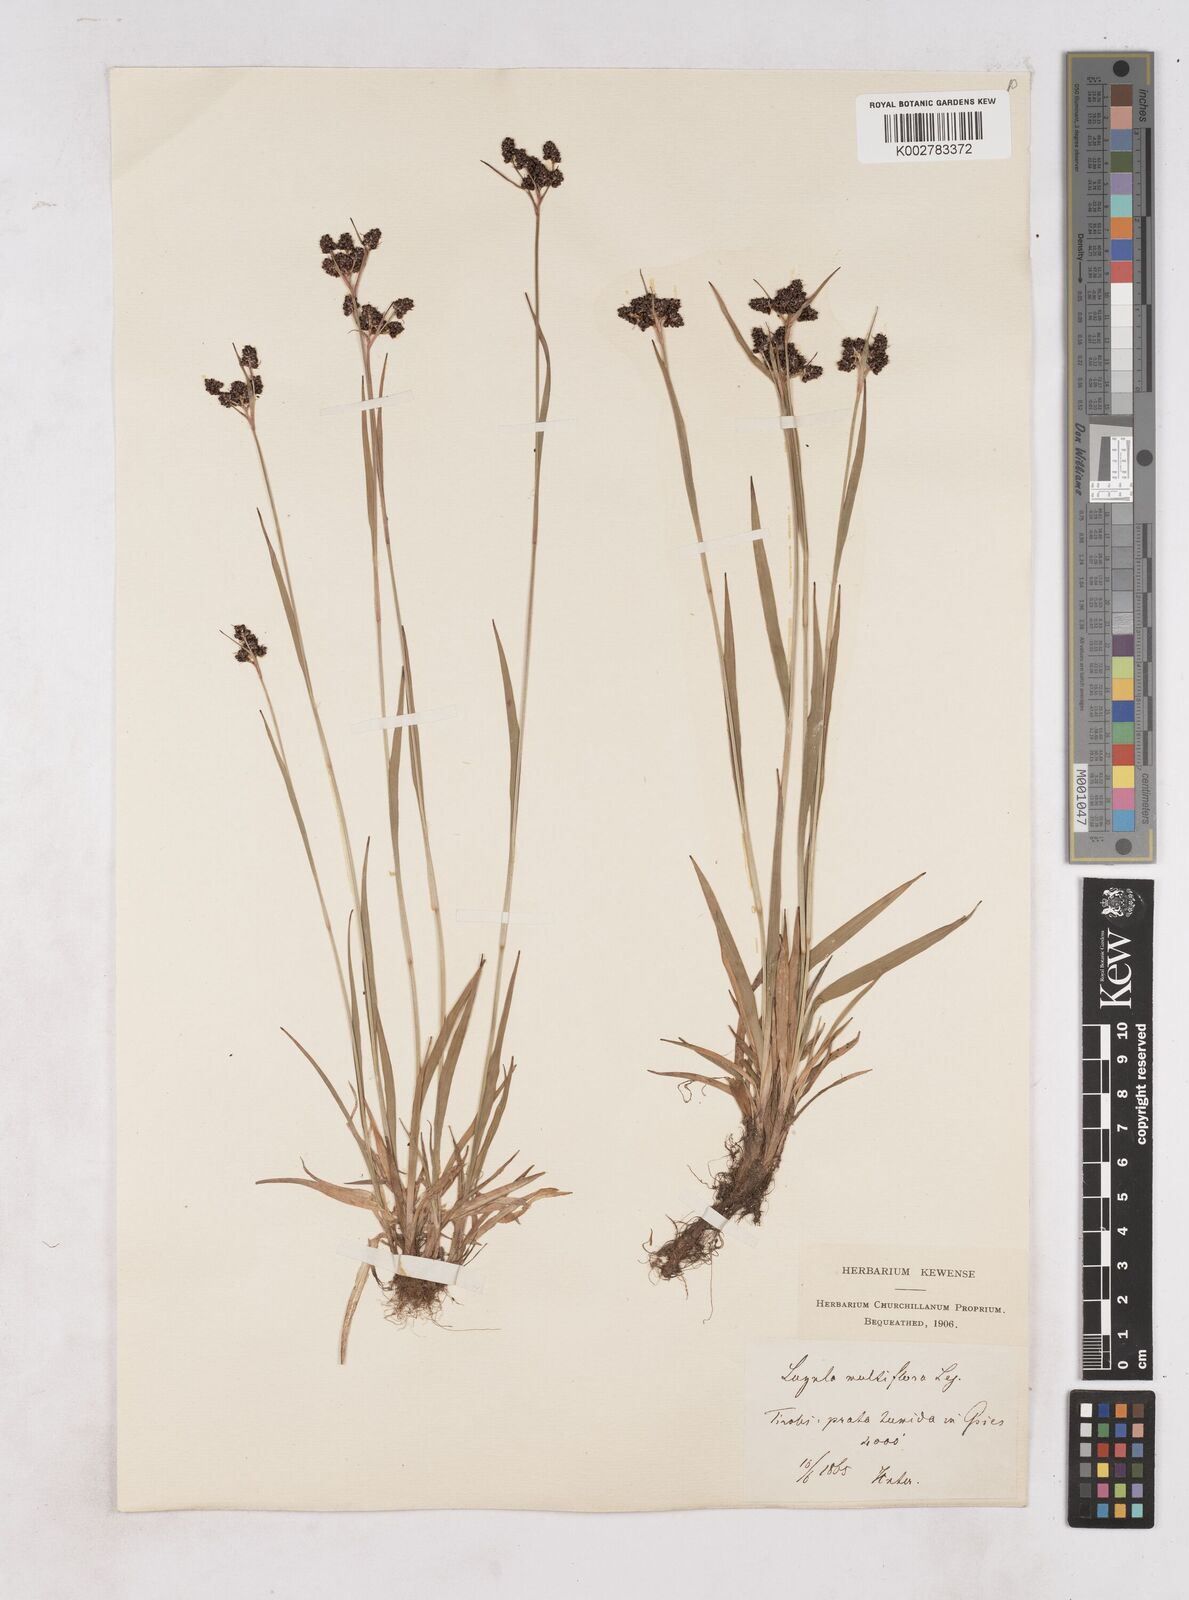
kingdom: Plantae
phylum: Tracheophyta
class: Liliopsida
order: Poales
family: Juncaceae
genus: Luzula
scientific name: Luzula multiflora
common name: Heath wood-rush
